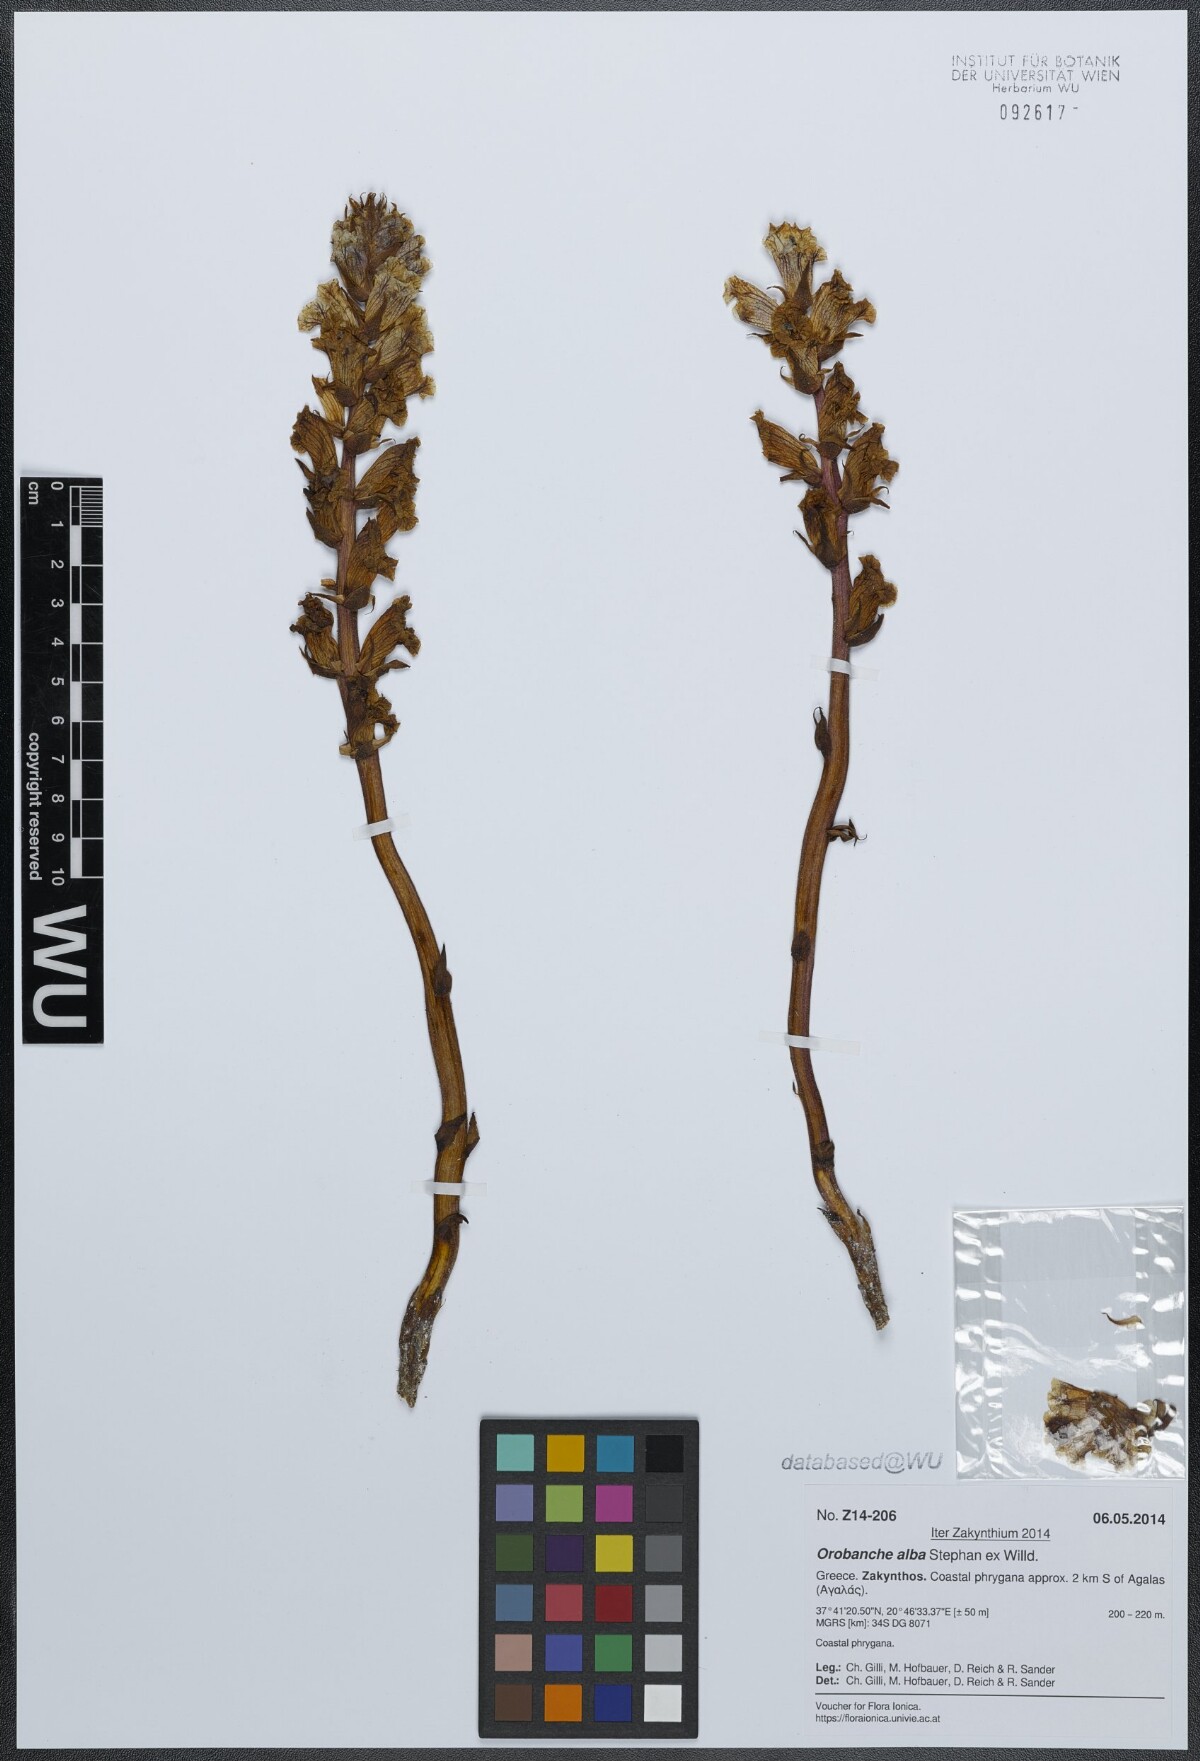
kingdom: Plantae
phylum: Tracheophyta
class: Magnoliopsida
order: Lamiales
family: Orobanchaceae
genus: Orobanche
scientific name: Orobanche alba
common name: Thyme broomrape
